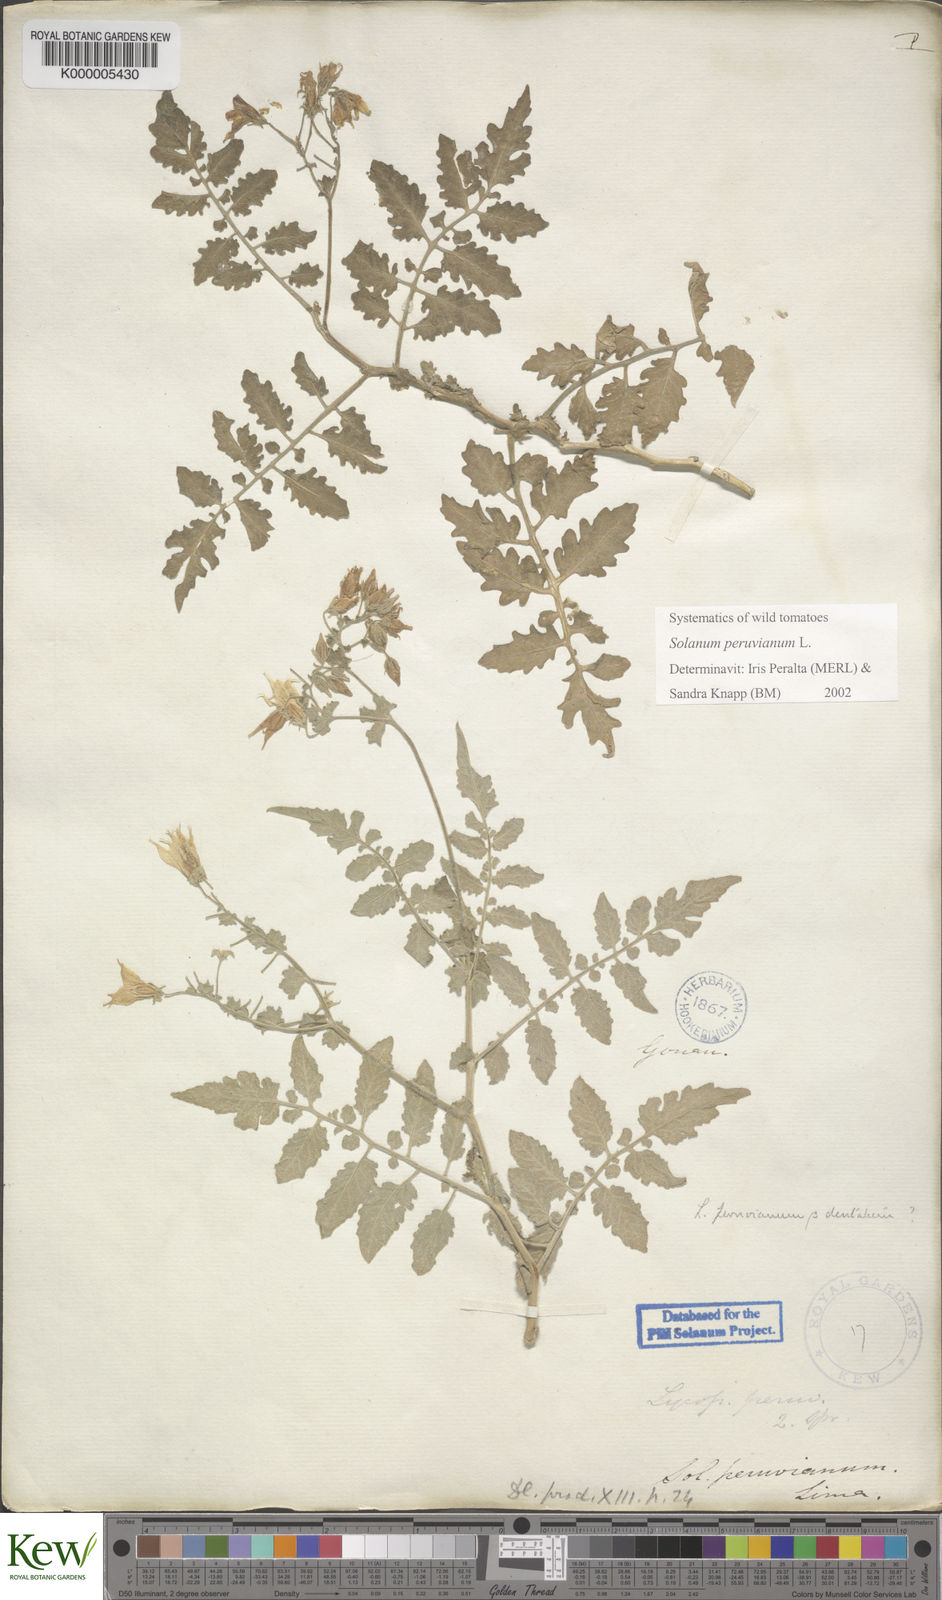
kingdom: Plantae
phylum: Tracheophyta
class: Magnoliopsida
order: Solanales
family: Solanaceae
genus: Solanum
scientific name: Solanum peruvianum
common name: Peruvian nightshade
